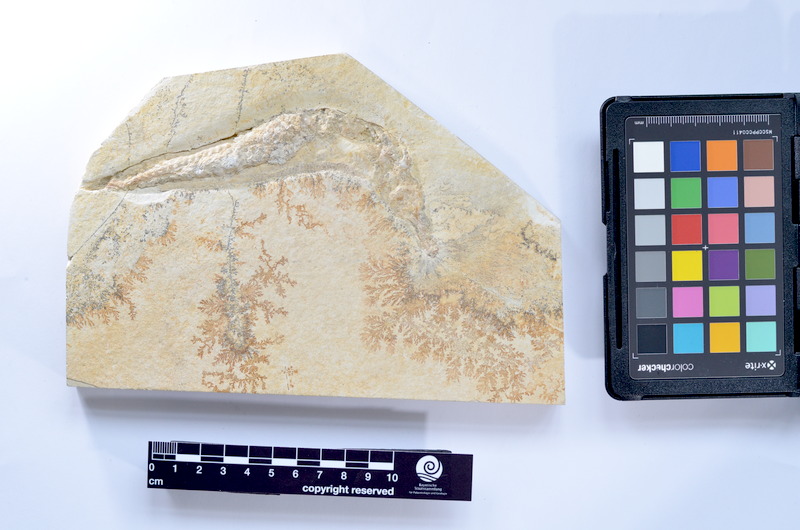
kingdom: Animalia
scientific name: Animalia
